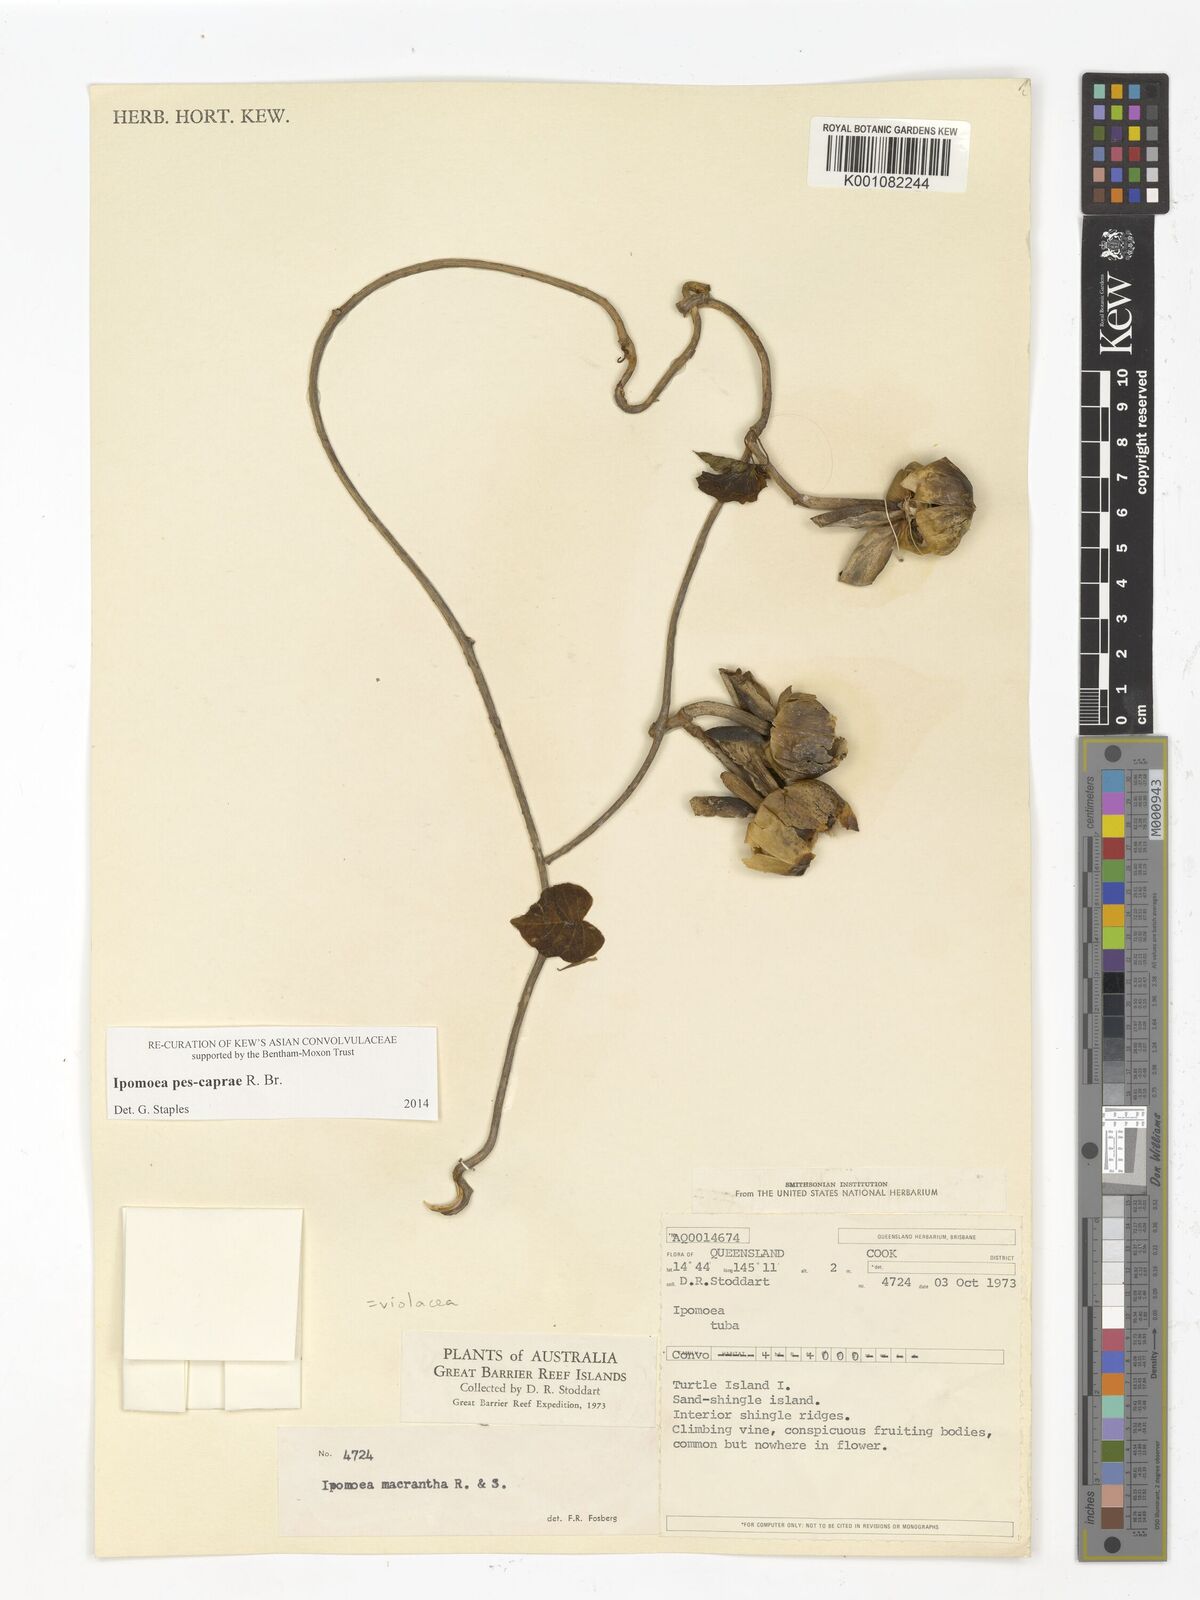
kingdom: Plantae
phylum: Tracheophyta
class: Magnoliopsida
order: Solanales
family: Convolvulaceae
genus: Ipomoea
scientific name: Ipomoea violacea
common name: Beach moonflower
